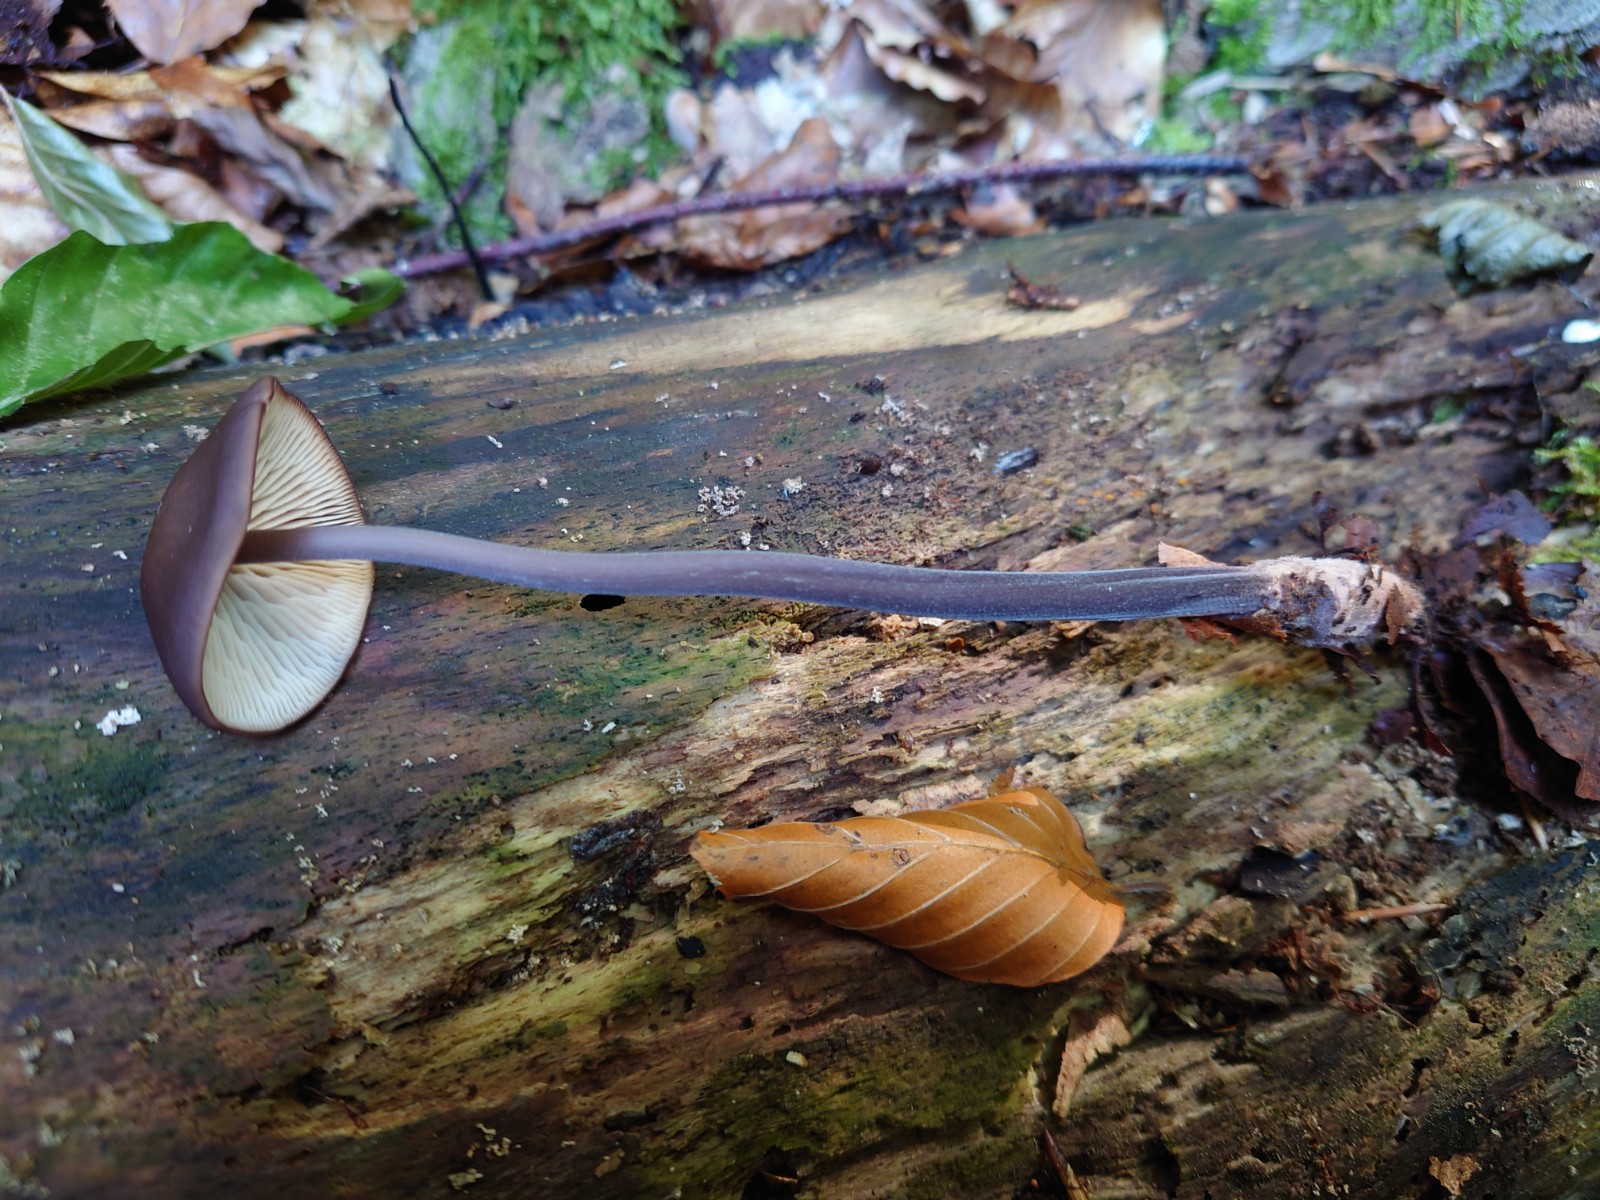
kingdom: Fungi
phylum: Basidiomycota
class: Agaricomycetes
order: Agaricales
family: Omphalotaceae
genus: Mycetinis
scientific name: Mycetinis alliaceus
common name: stor løghat
